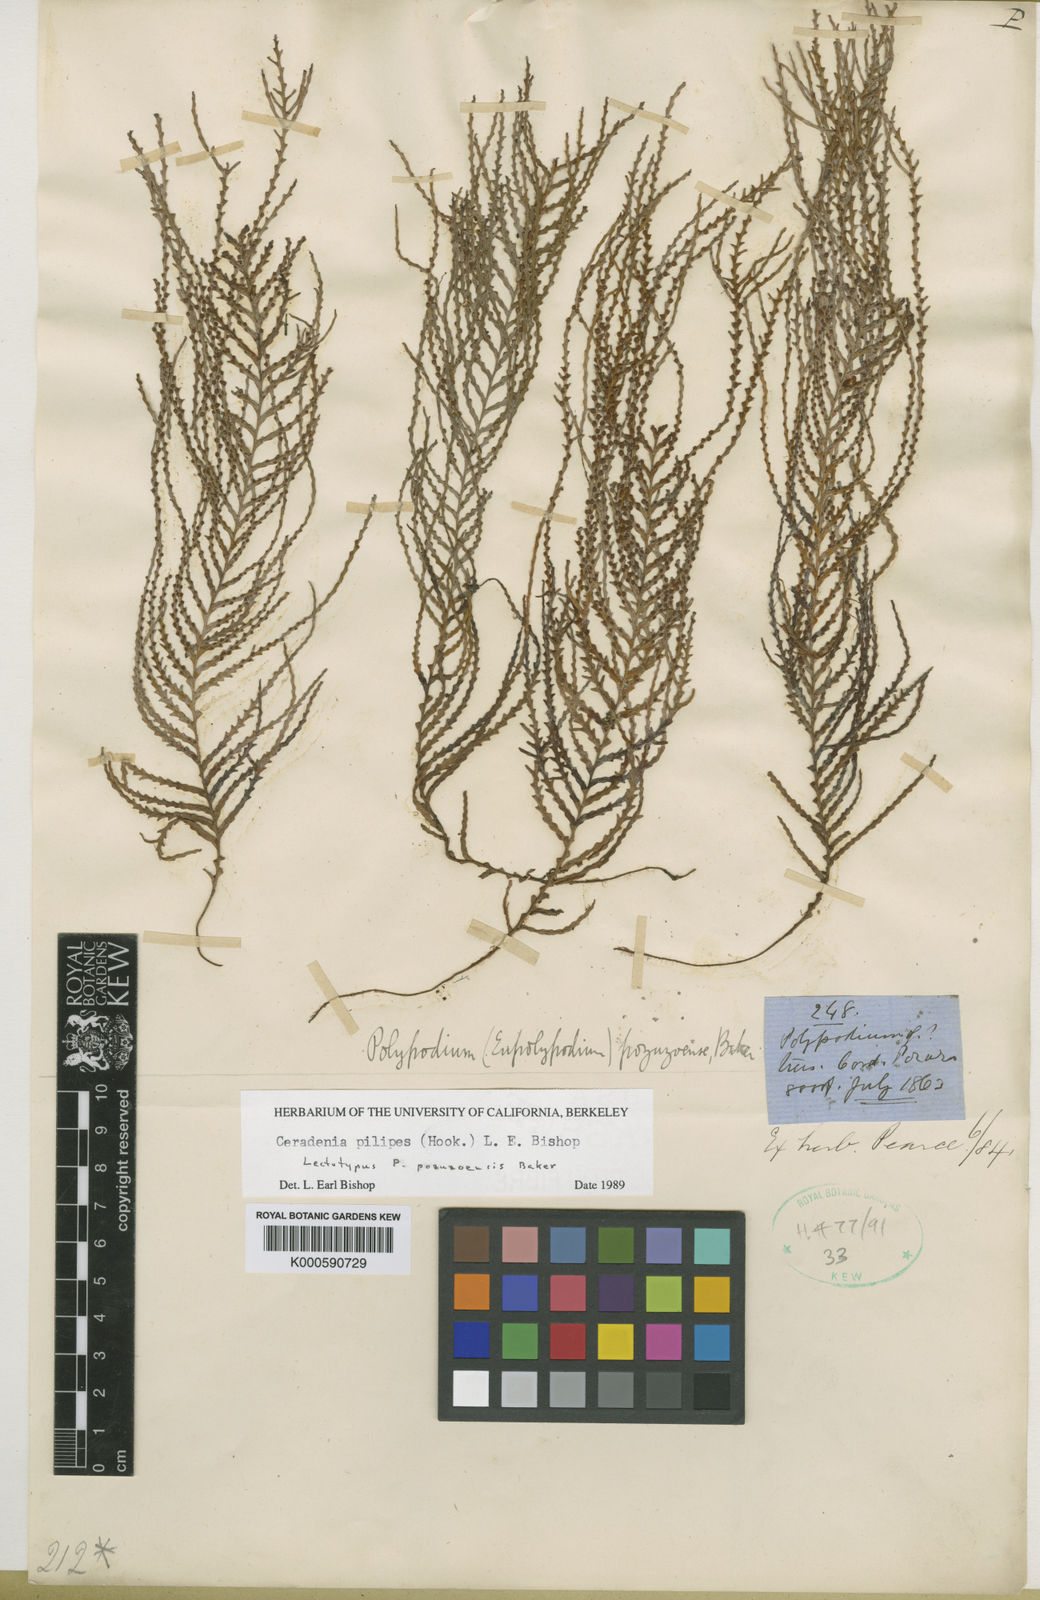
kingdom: Plantae
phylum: Tracheophyta
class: Polypodiopsida
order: Polypodiales
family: Polypodiaceae
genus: Ceradenia
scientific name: Ceradenia pilipes
